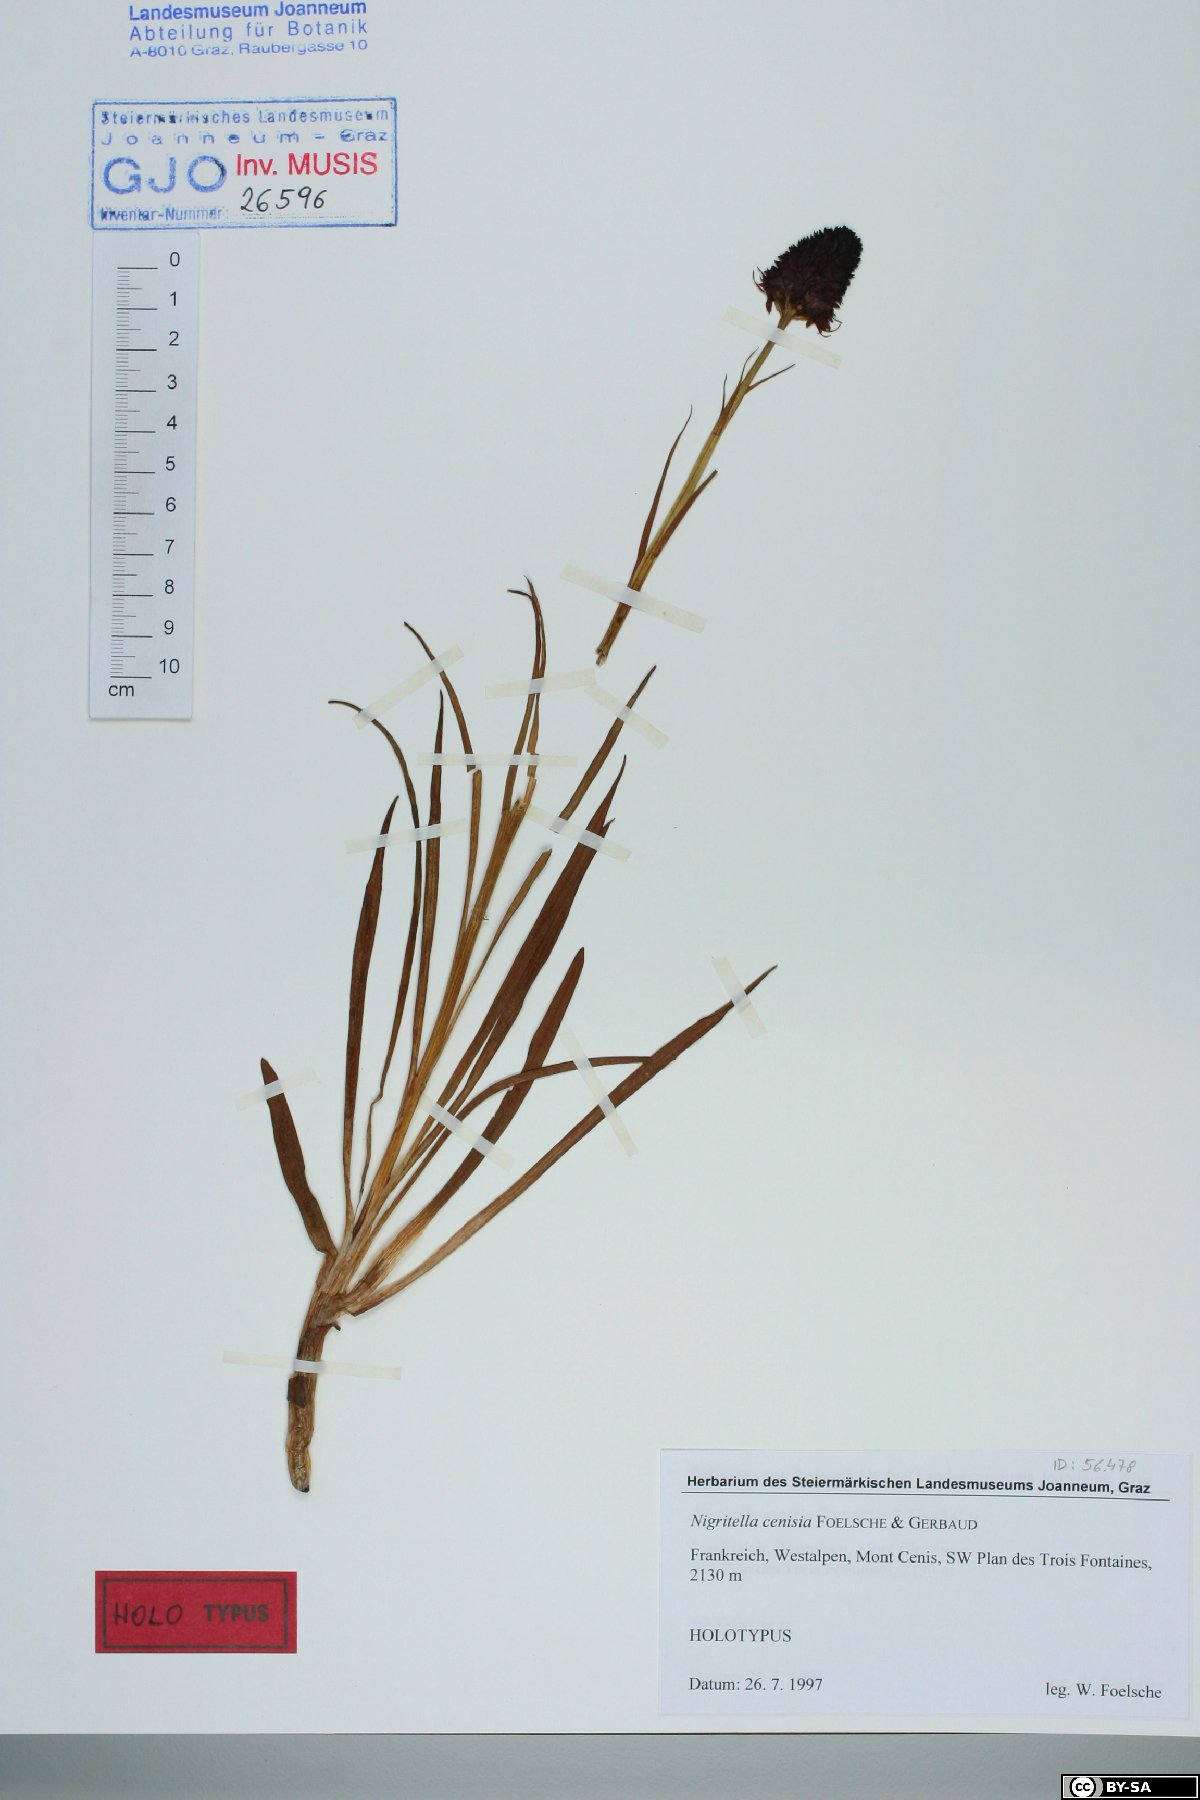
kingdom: Plantae
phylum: Tracheophyta
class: Liliopsida
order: Asparagales
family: Orchidaceae
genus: Gymnadenia
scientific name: Gymnadenia rhellicani
